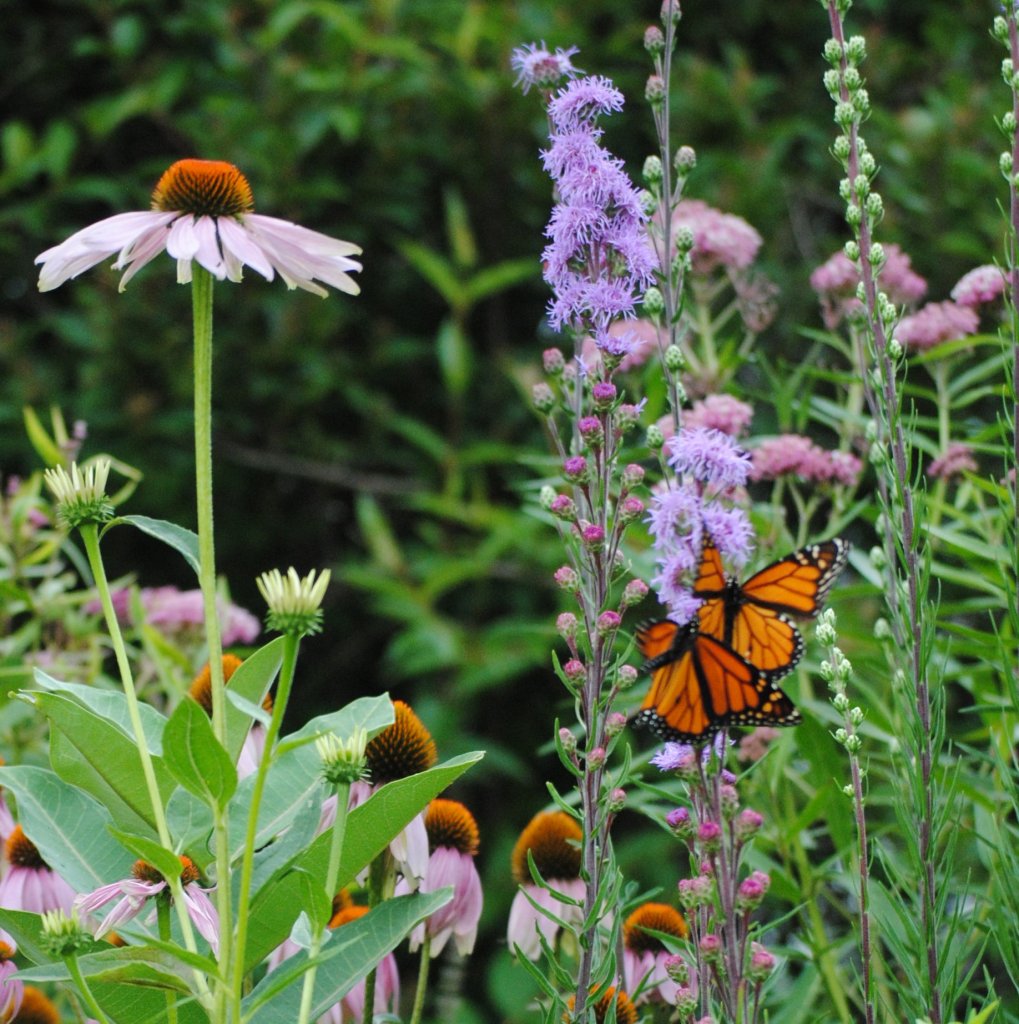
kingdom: Animalia
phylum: Arthropoda
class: Insecta
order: Lepidoptera
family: Nymphalidae
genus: Danaus
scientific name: Danaus plexippus
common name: Monarch
